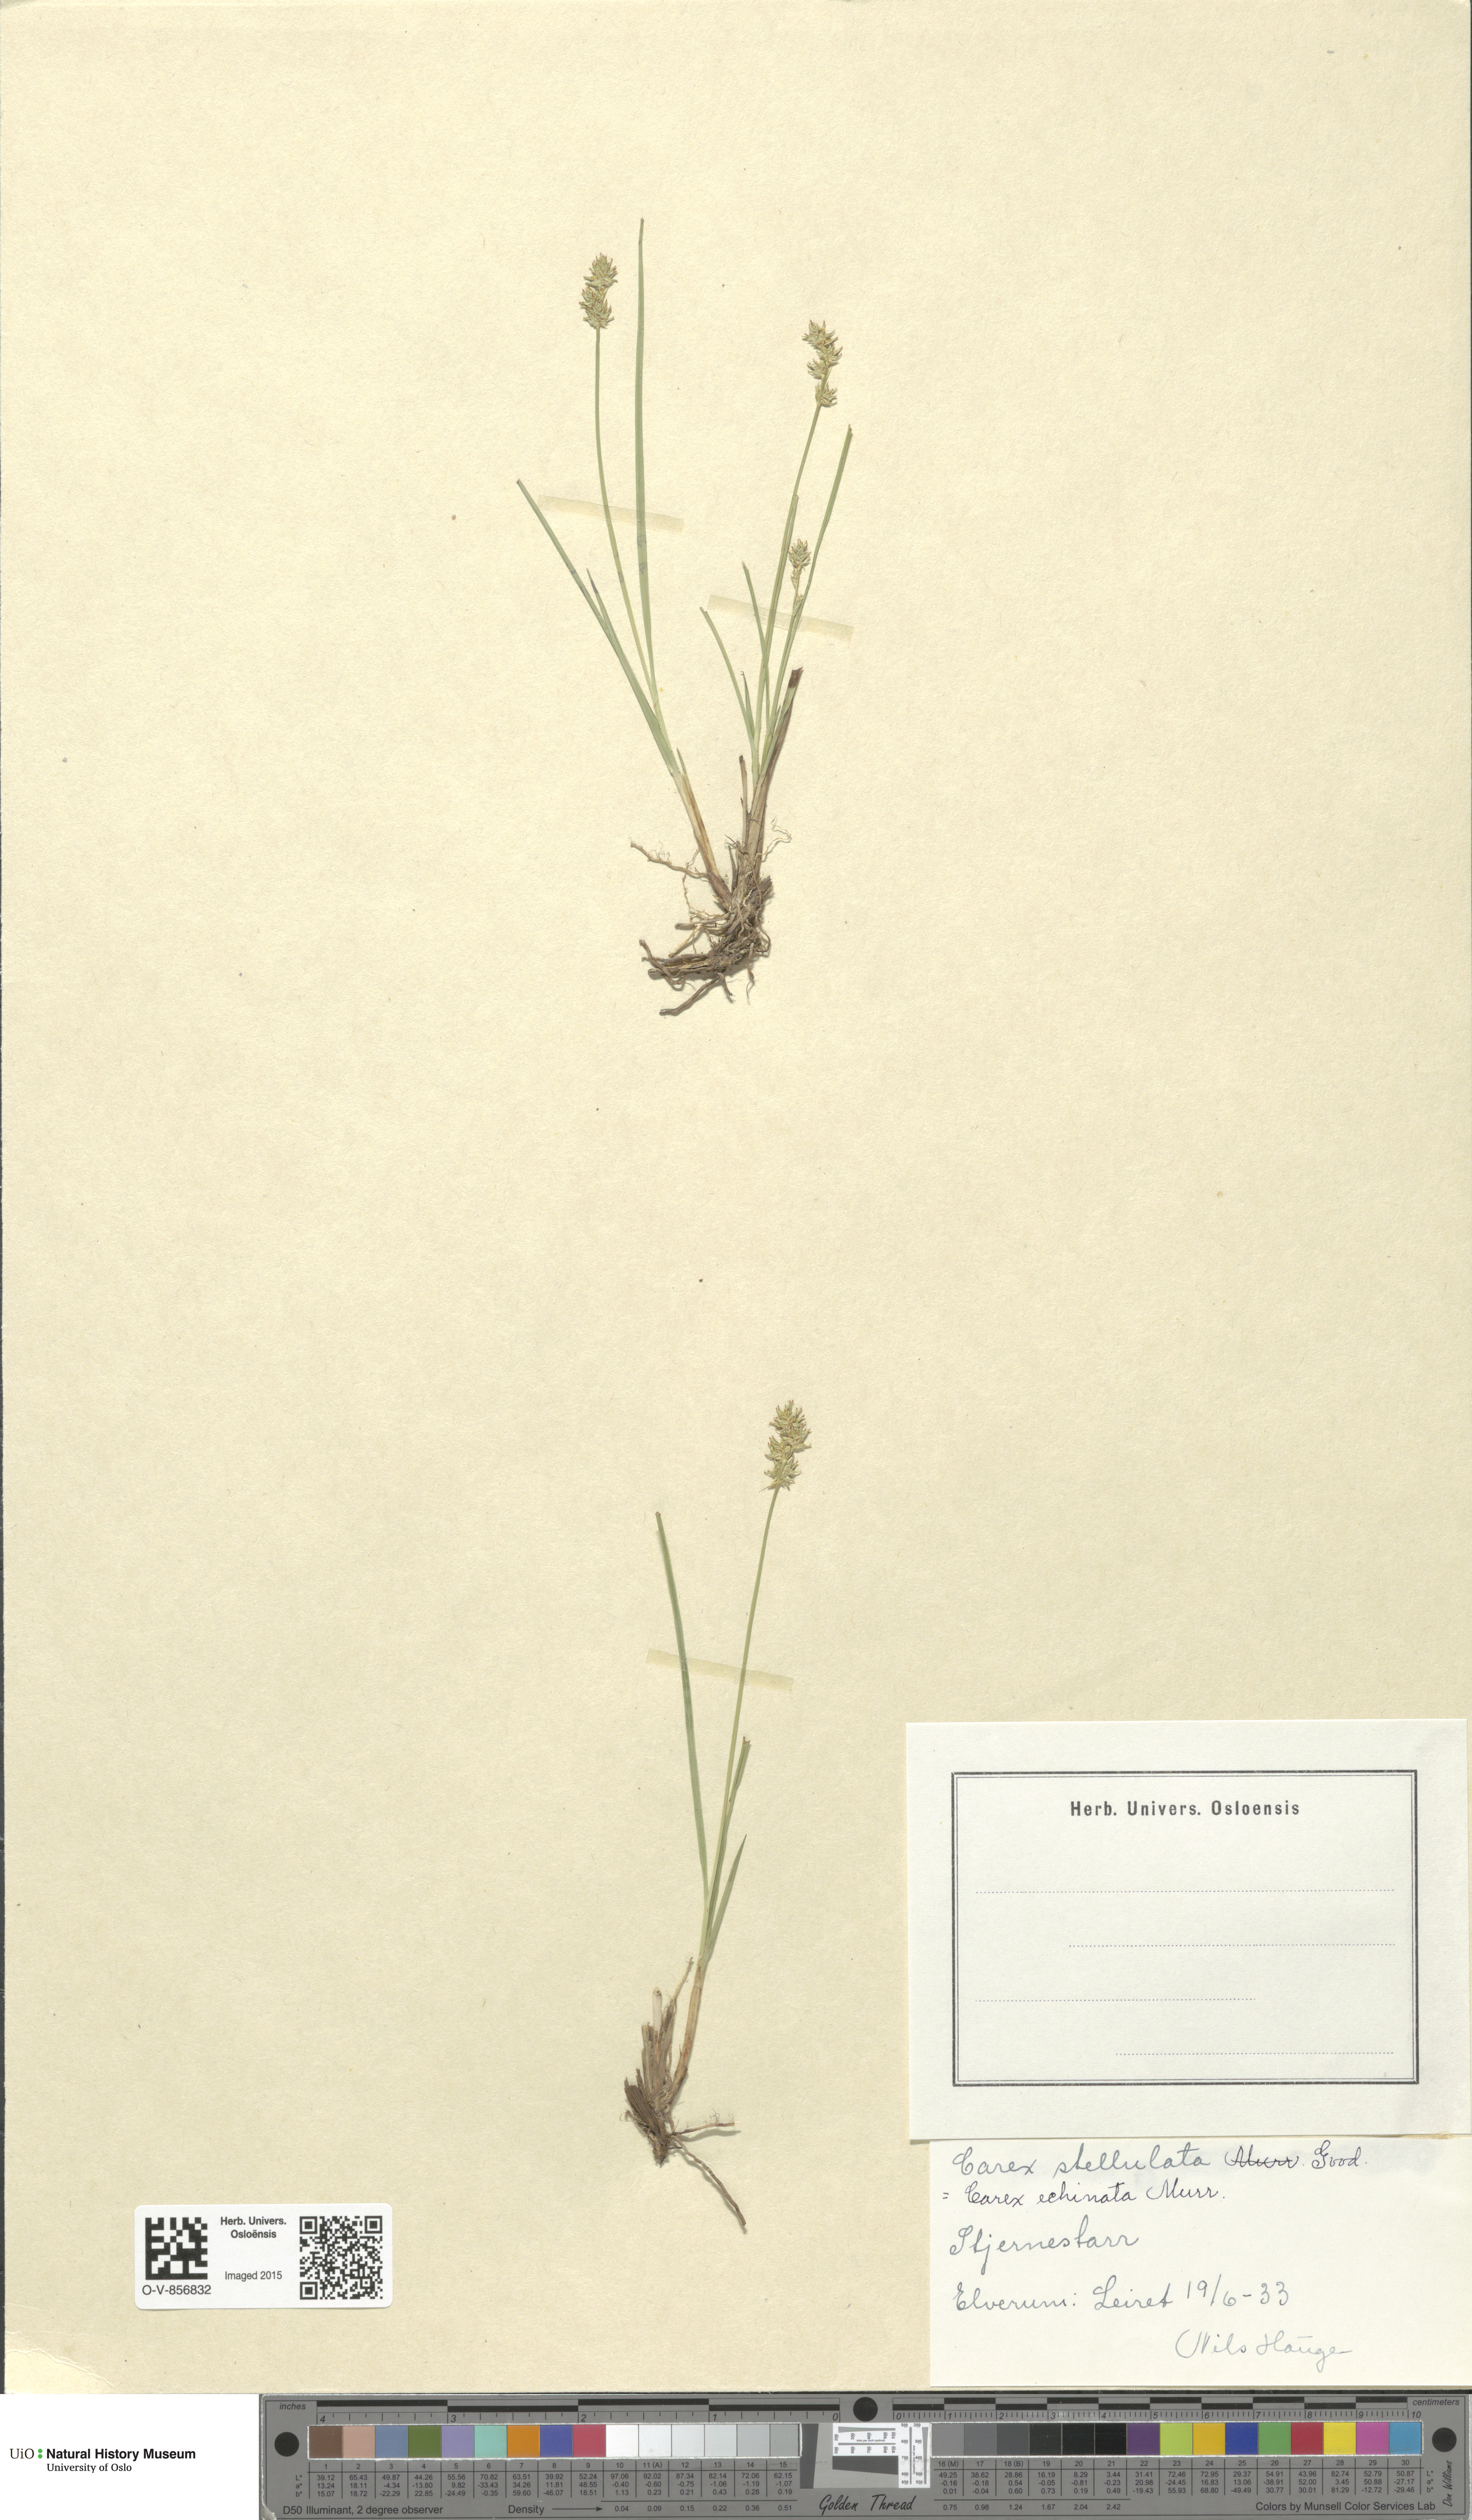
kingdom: Plantae
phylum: Tracheophyta
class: Liliopsida
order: Poales
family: Cyperaceae
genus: Carex
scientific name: Carex echinata
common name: Star sedge
